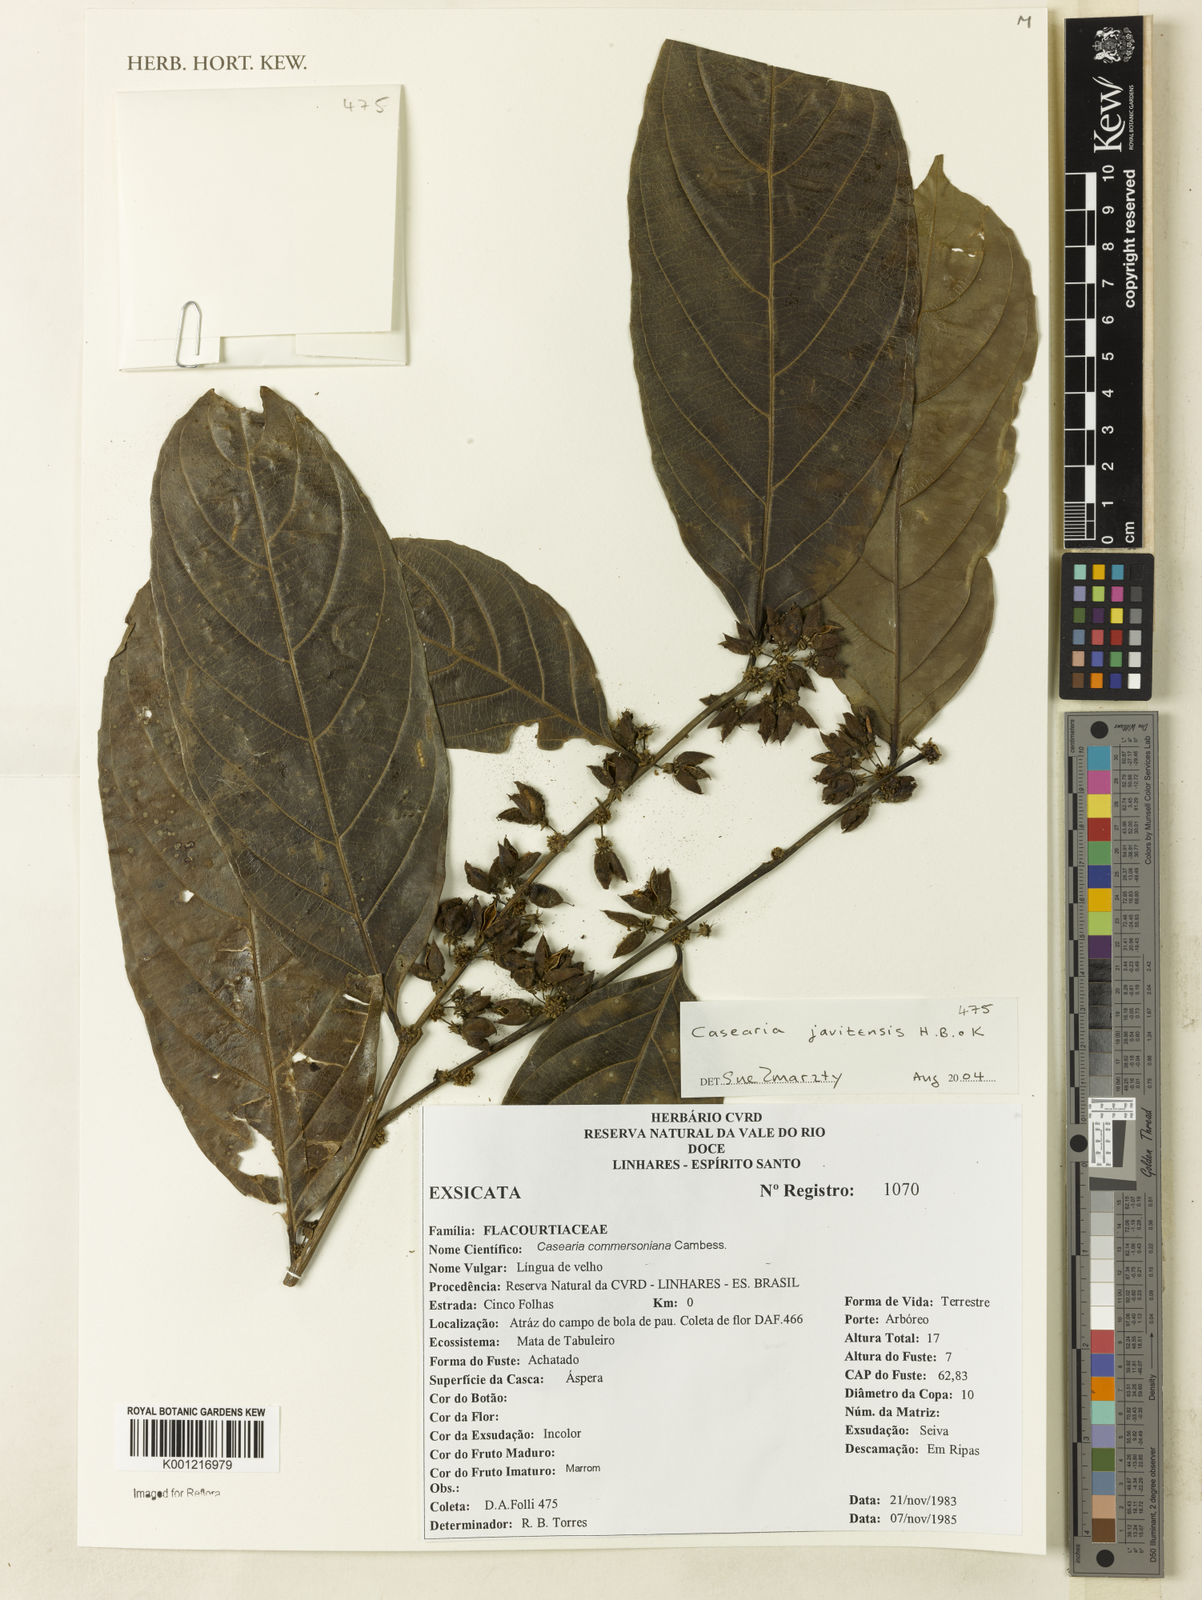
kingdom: Plantae
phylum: Tracheophyta
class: Magnoliopsida
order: Malpighiales
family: Salicaceae
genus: Piparea
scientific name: Piparea multiflora
